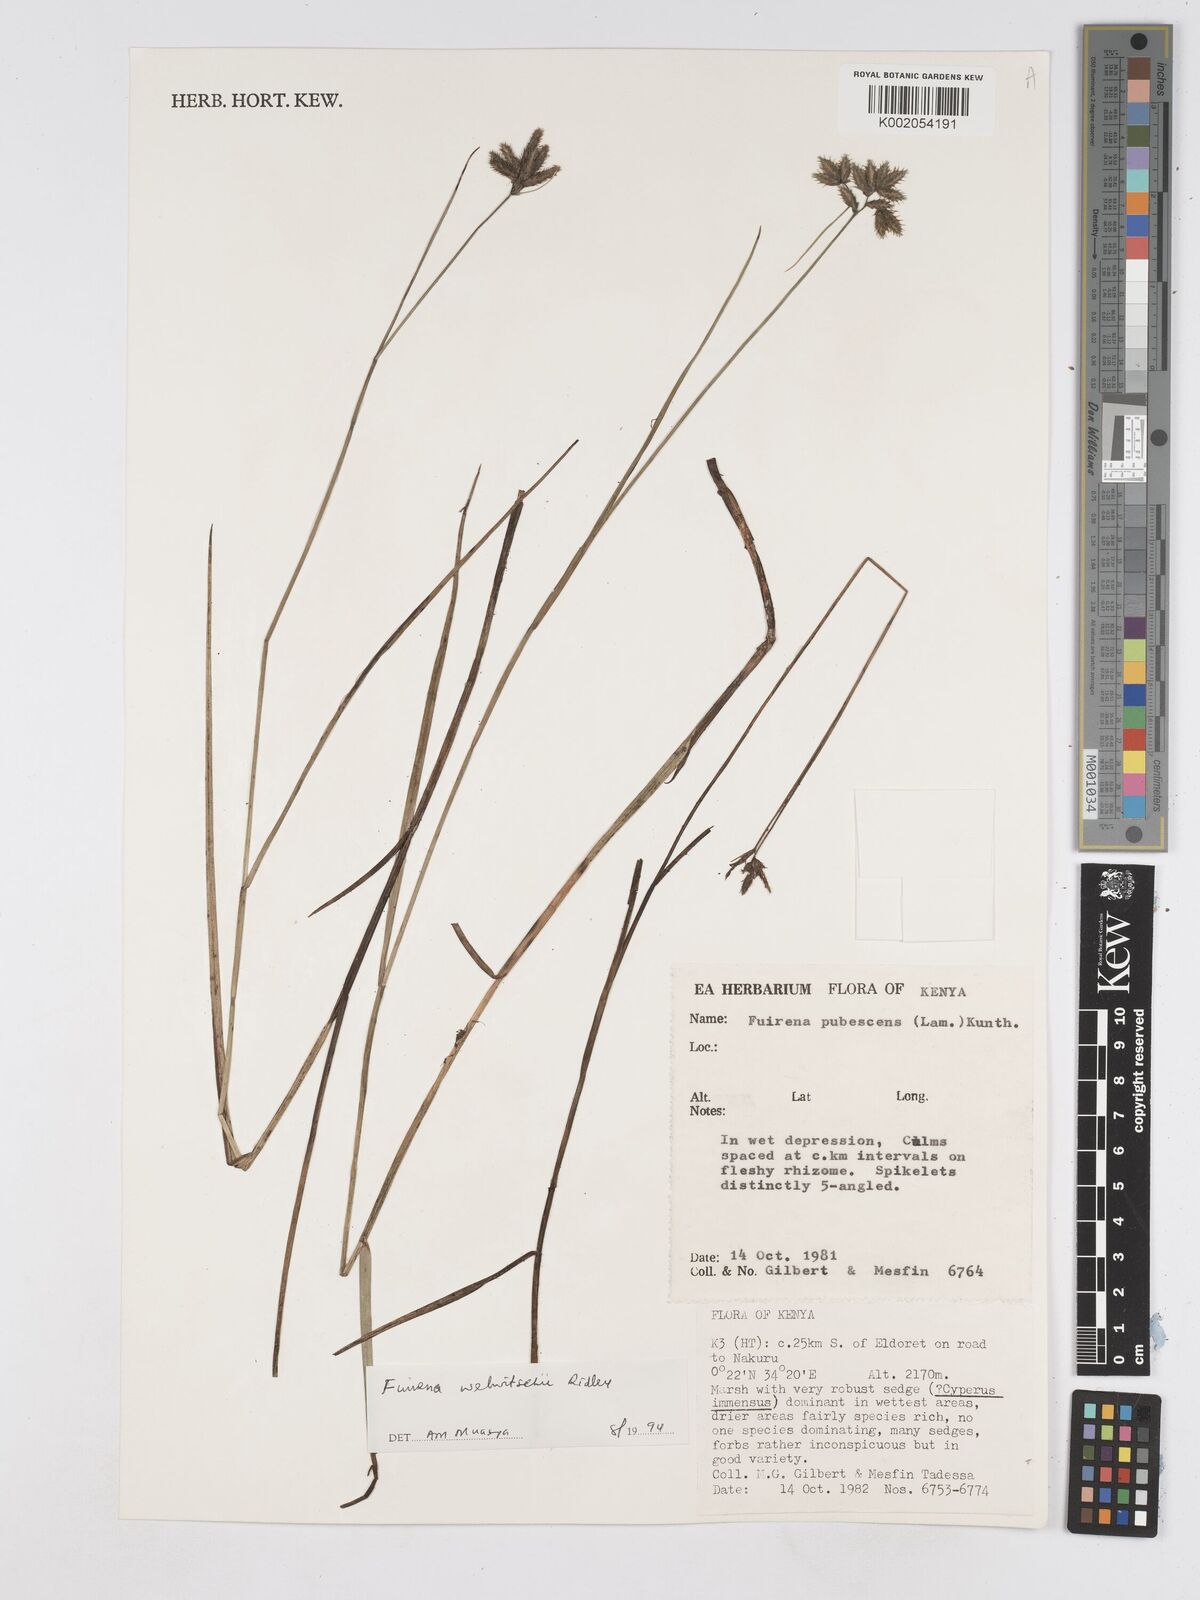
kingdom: Plantae
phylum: Tracheophyta
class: Liliopsida
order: Poales
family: Cyperaceae
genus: Fuirena
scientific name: Fuirena welwitschii
